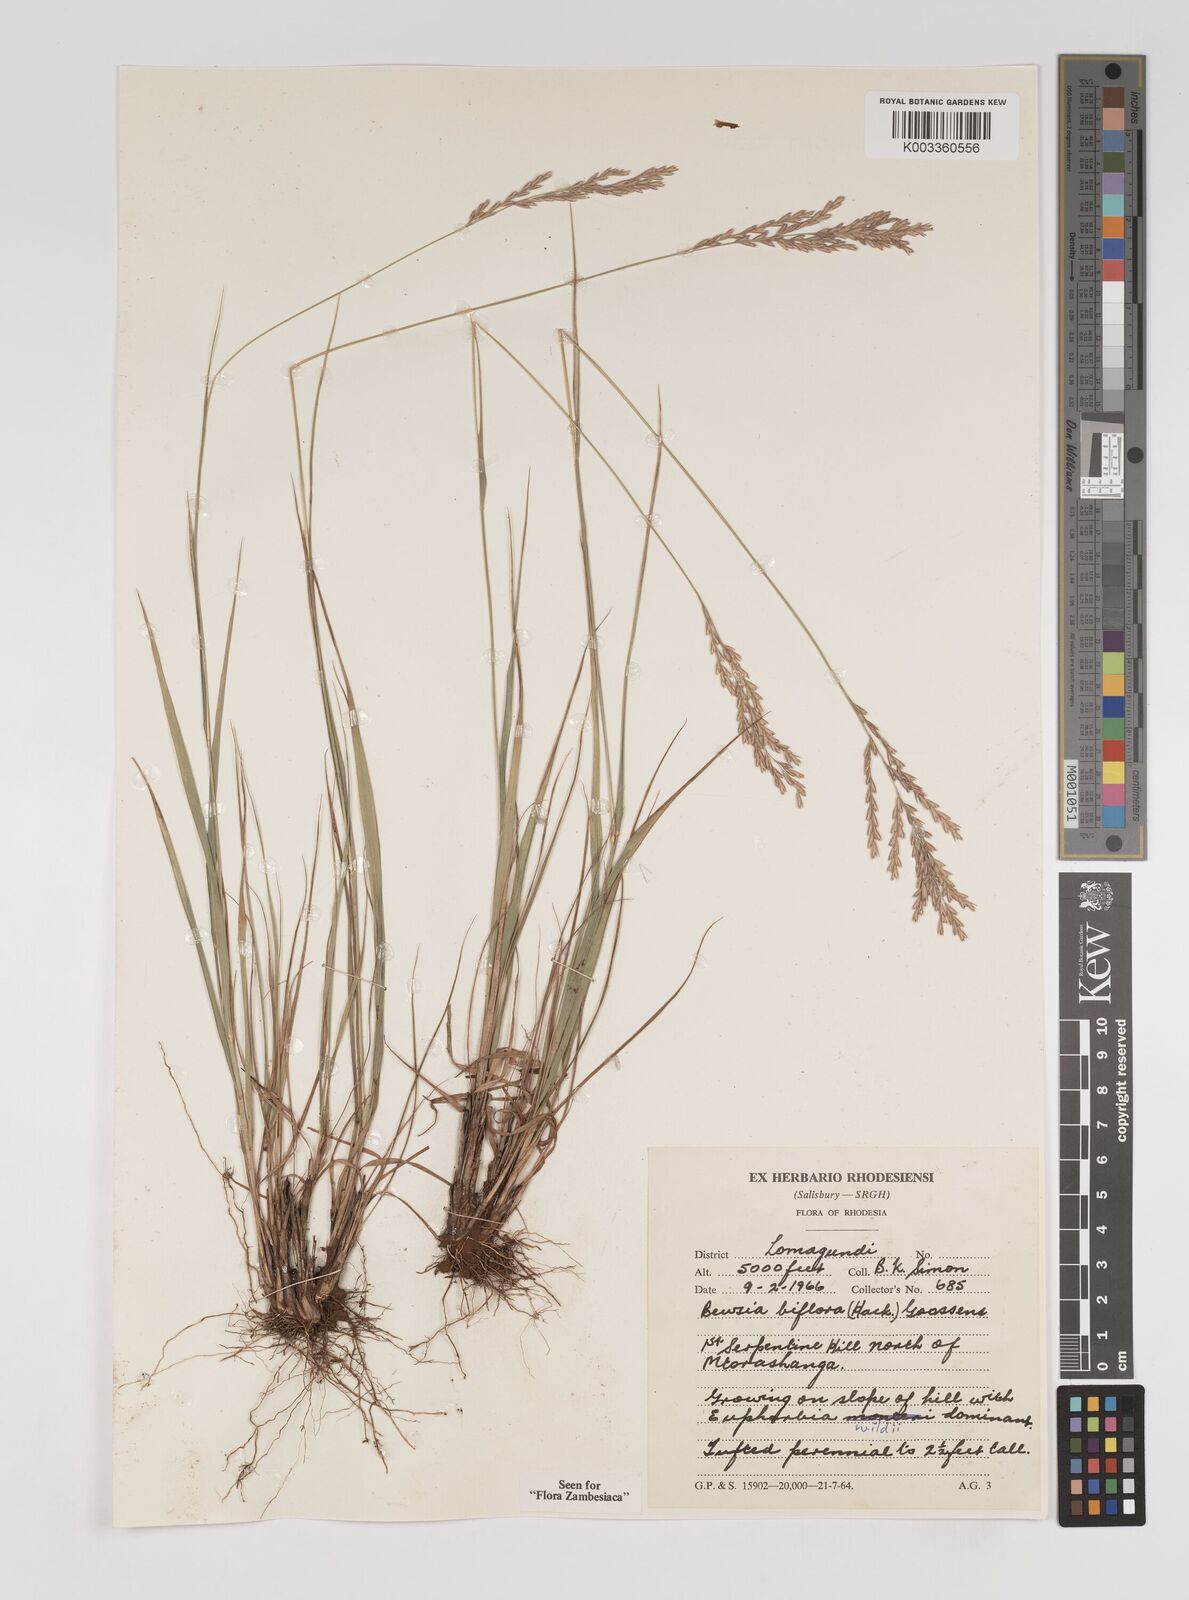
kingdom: Plantae
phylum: Tracheophyta
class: Liliopsida
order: Poales
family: Poaceae
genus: Bewsia
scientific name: Bewsia biflora
